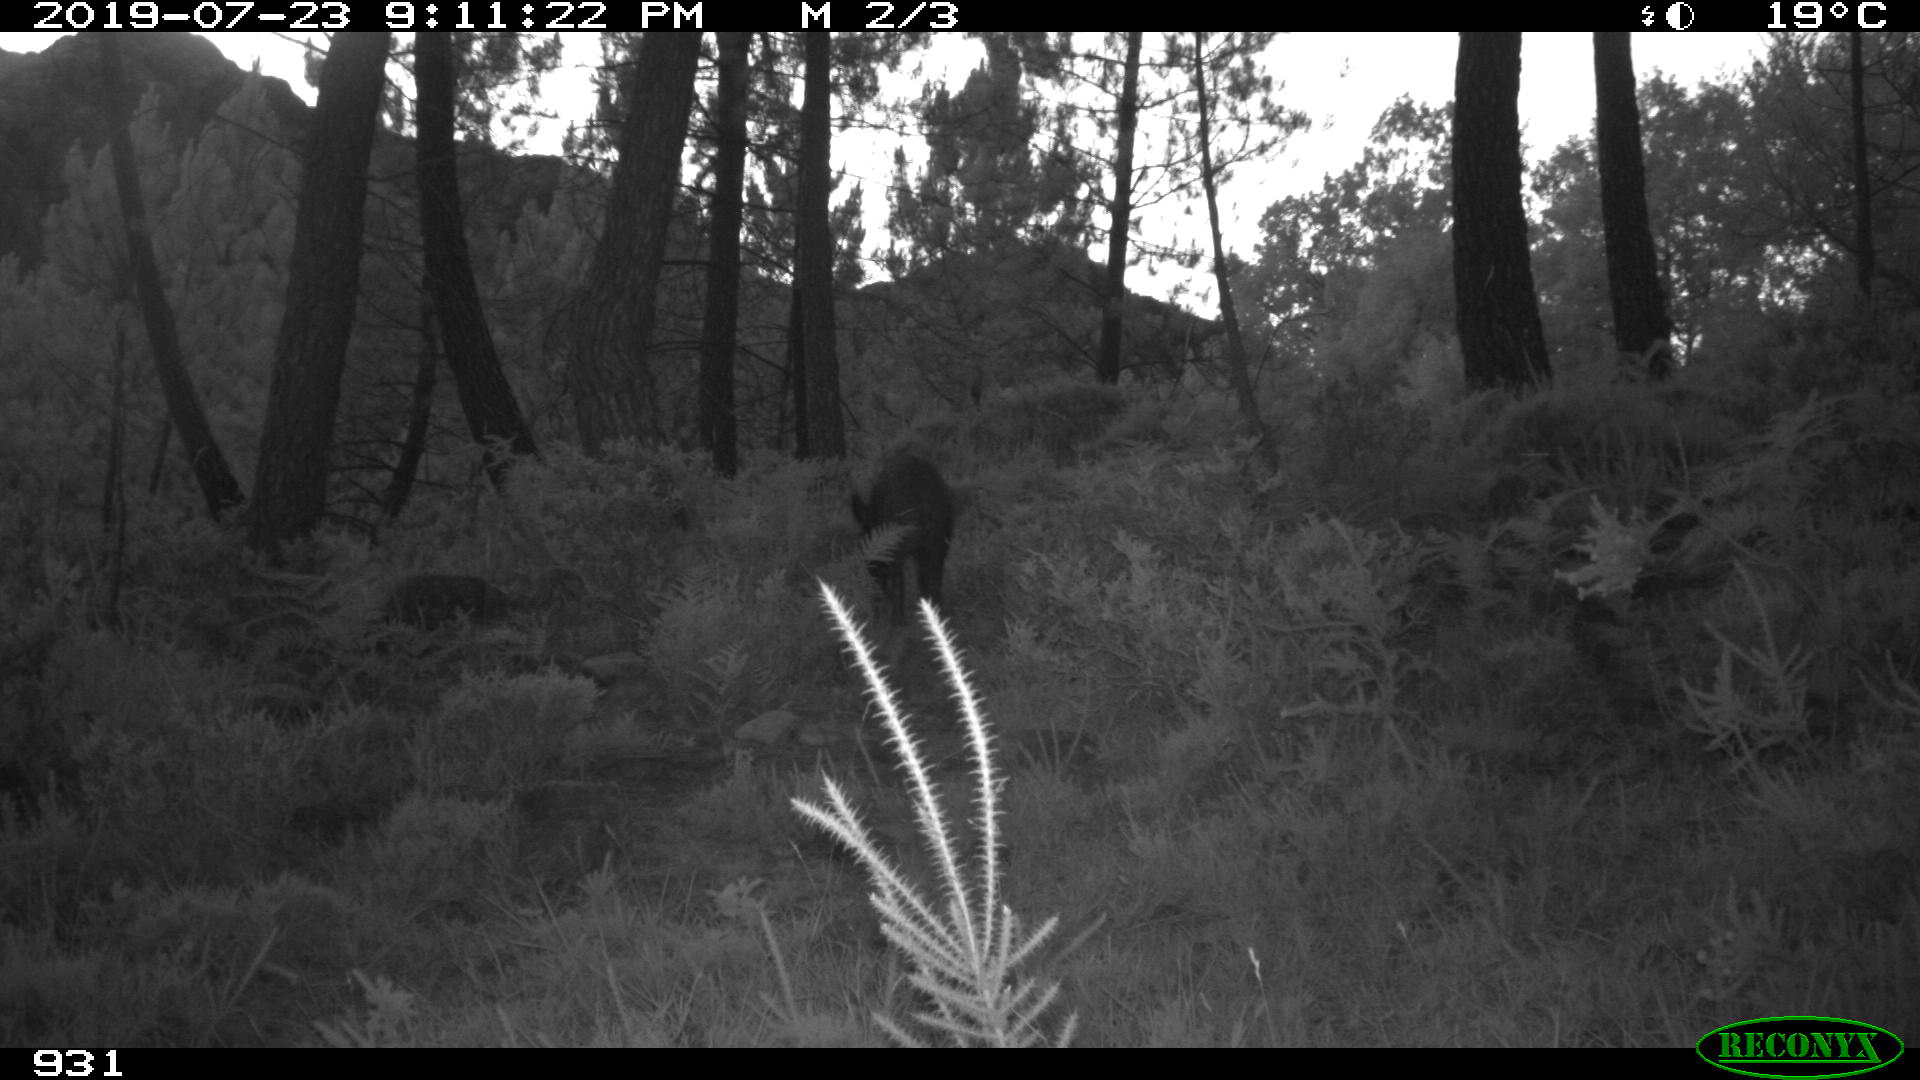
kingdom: Animalia
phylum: Chordata
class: Mammalia
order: Artiodactyla
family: Suidae
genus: Sus
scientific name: Sus scrofa
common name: Wild boar
